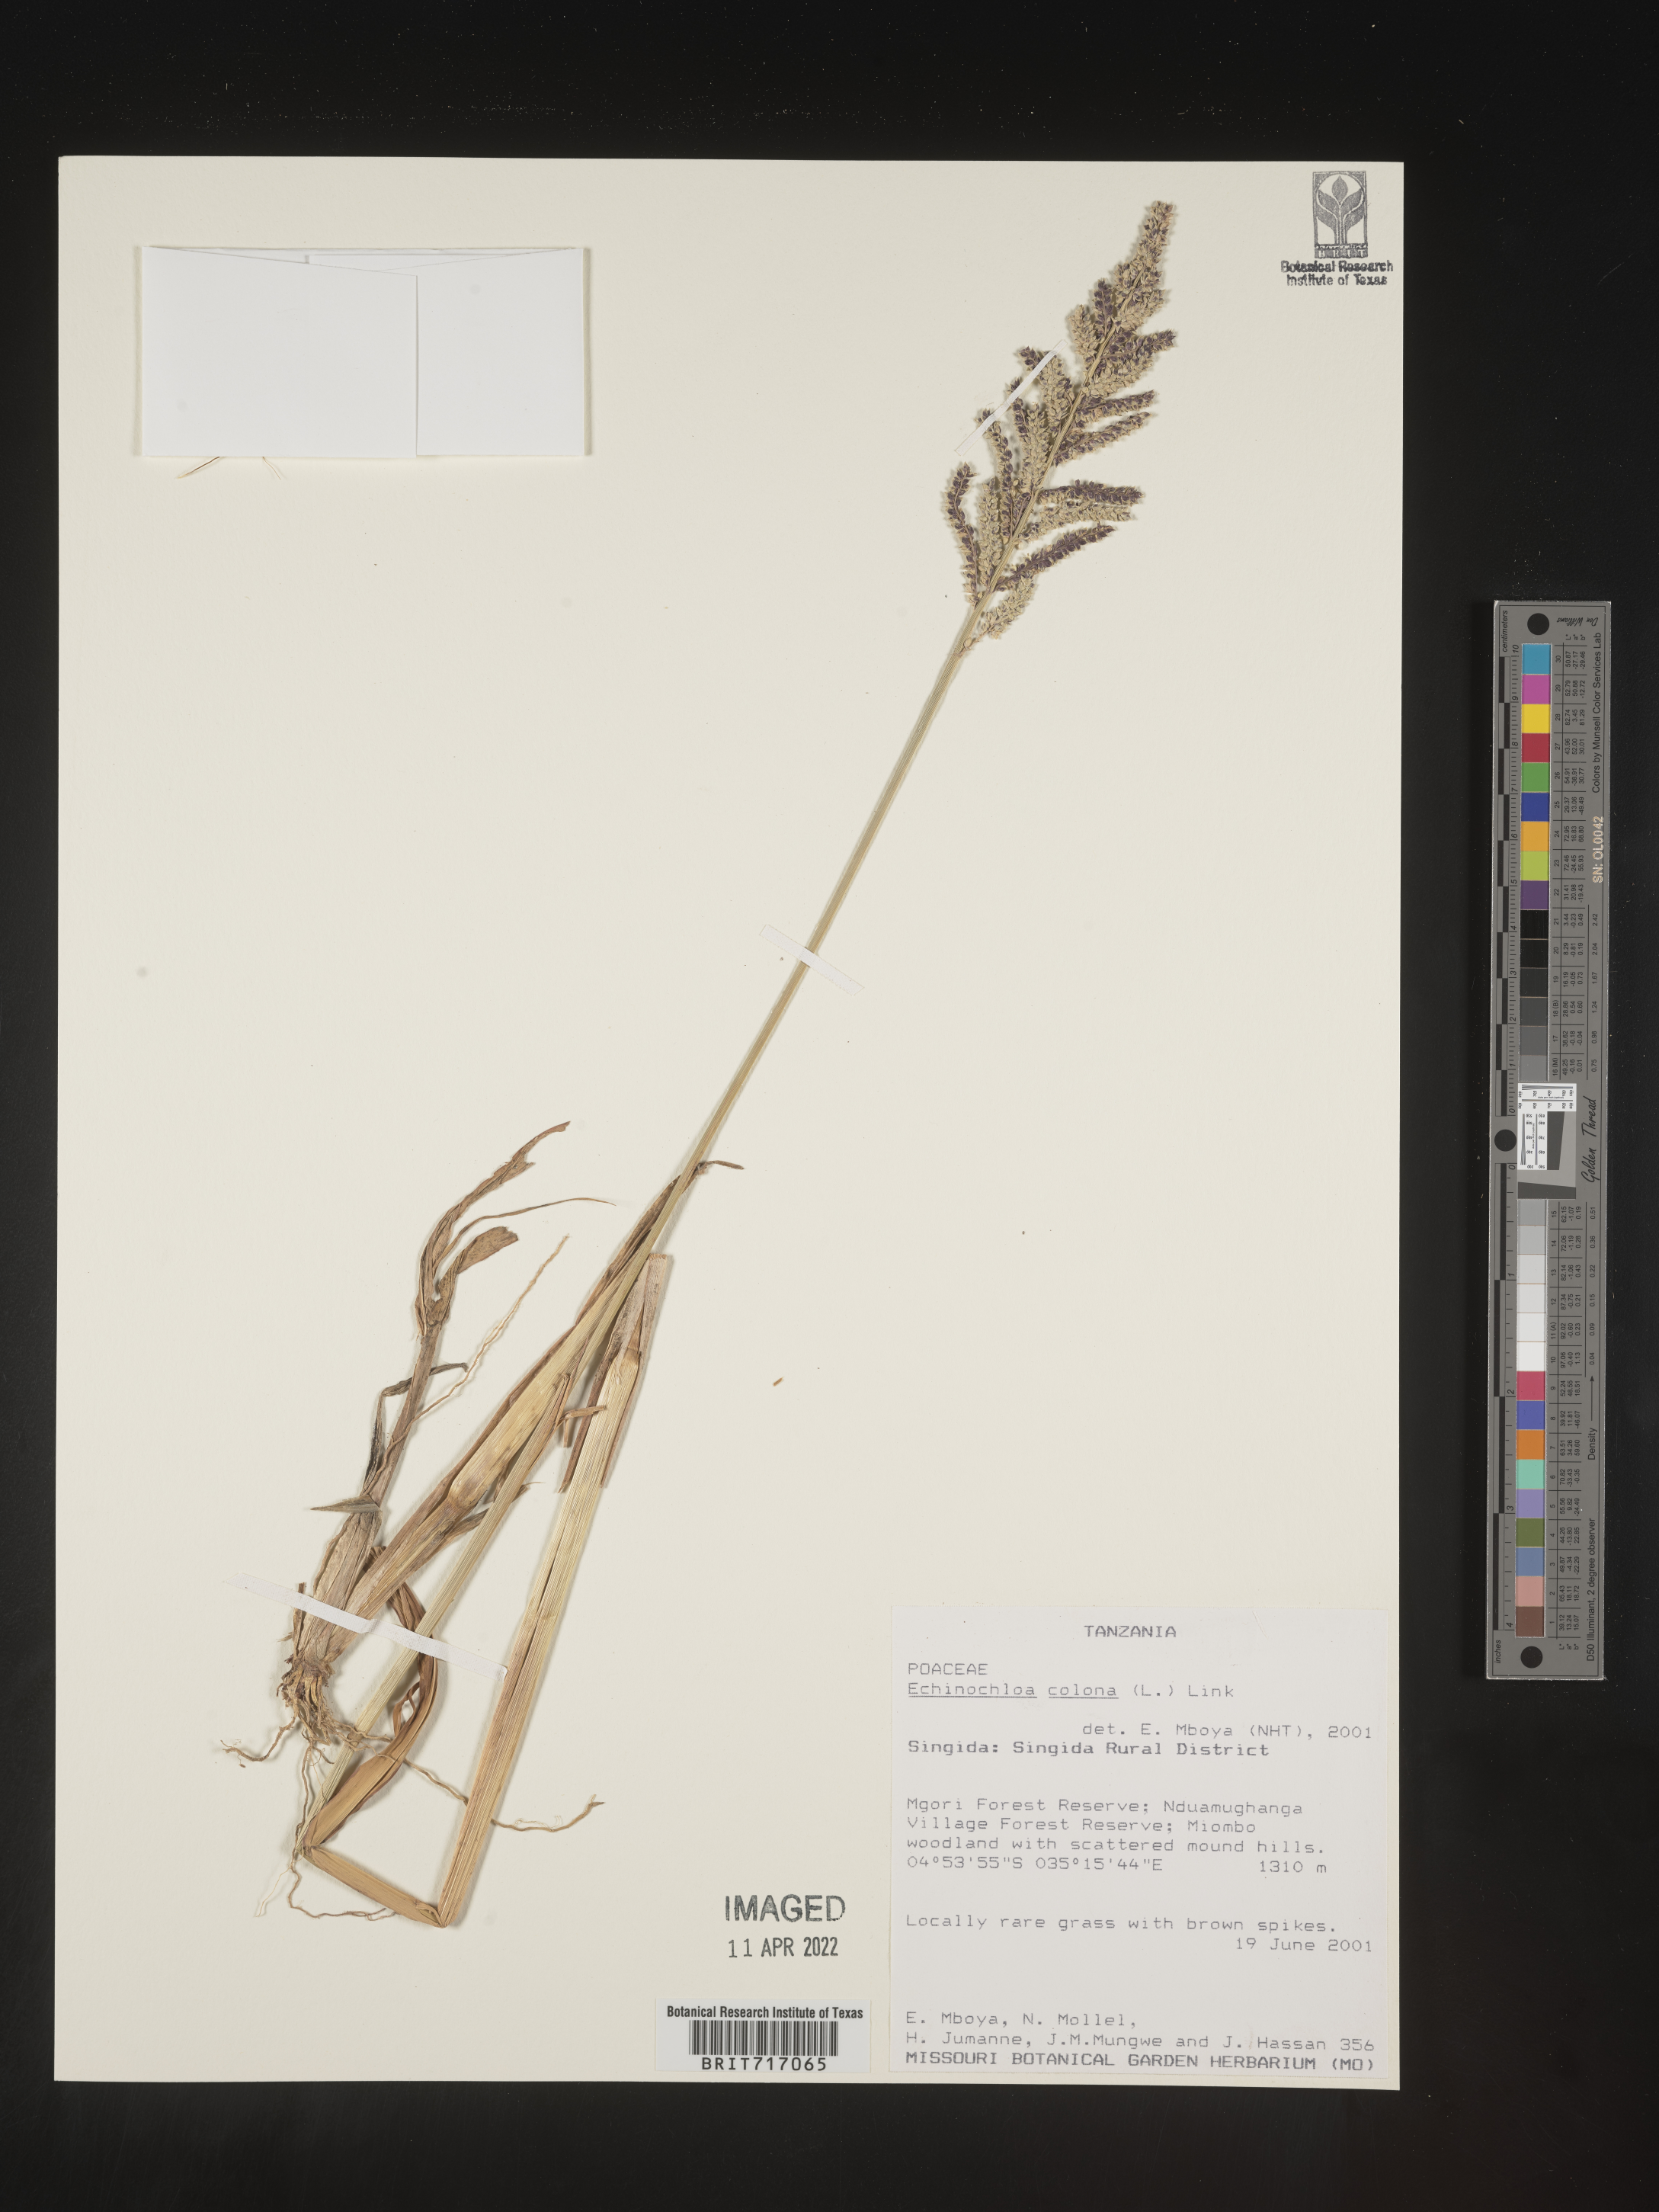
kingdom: Plantae
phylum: Tracheophyta
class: Liliopsida
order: Poales
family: Poaceae
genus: Echinochloa
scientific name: Echinochloa
